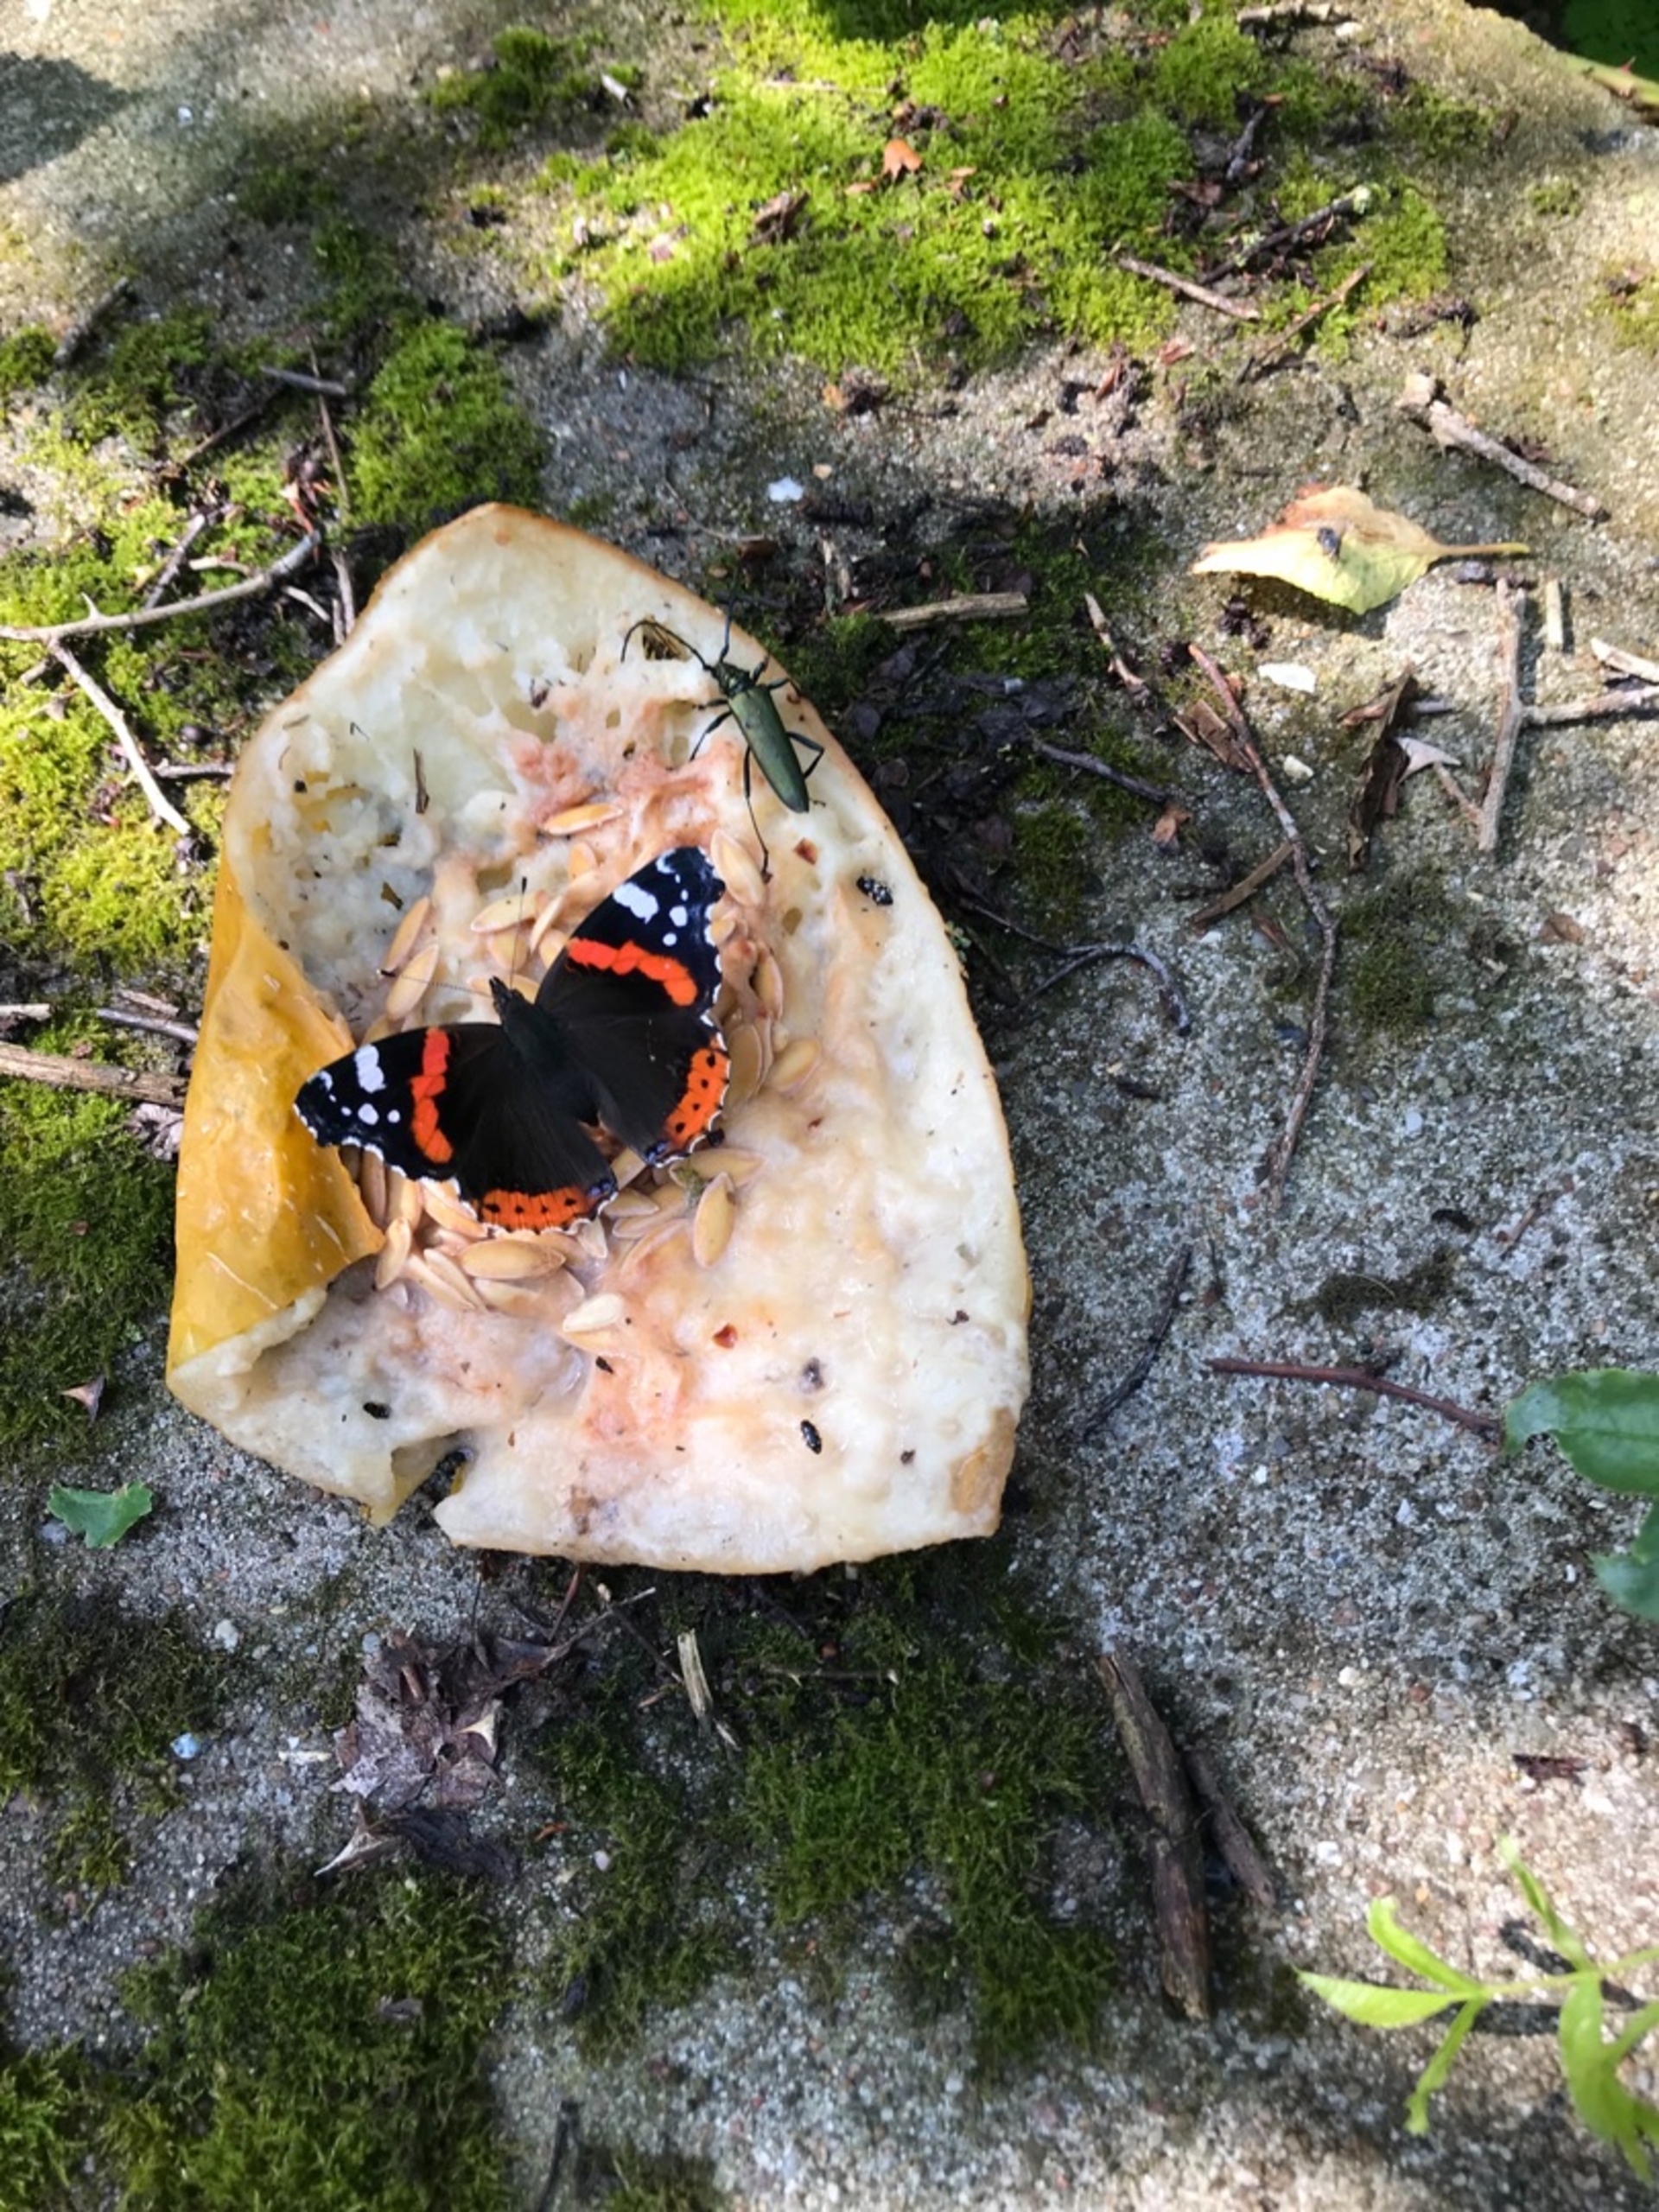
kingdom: Animalia
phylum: Arthropoda
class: Insecta
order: Lepidoptera
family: Nymphalidae
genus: Vanessa
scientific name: Vanessa atalanta
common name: Admiral
